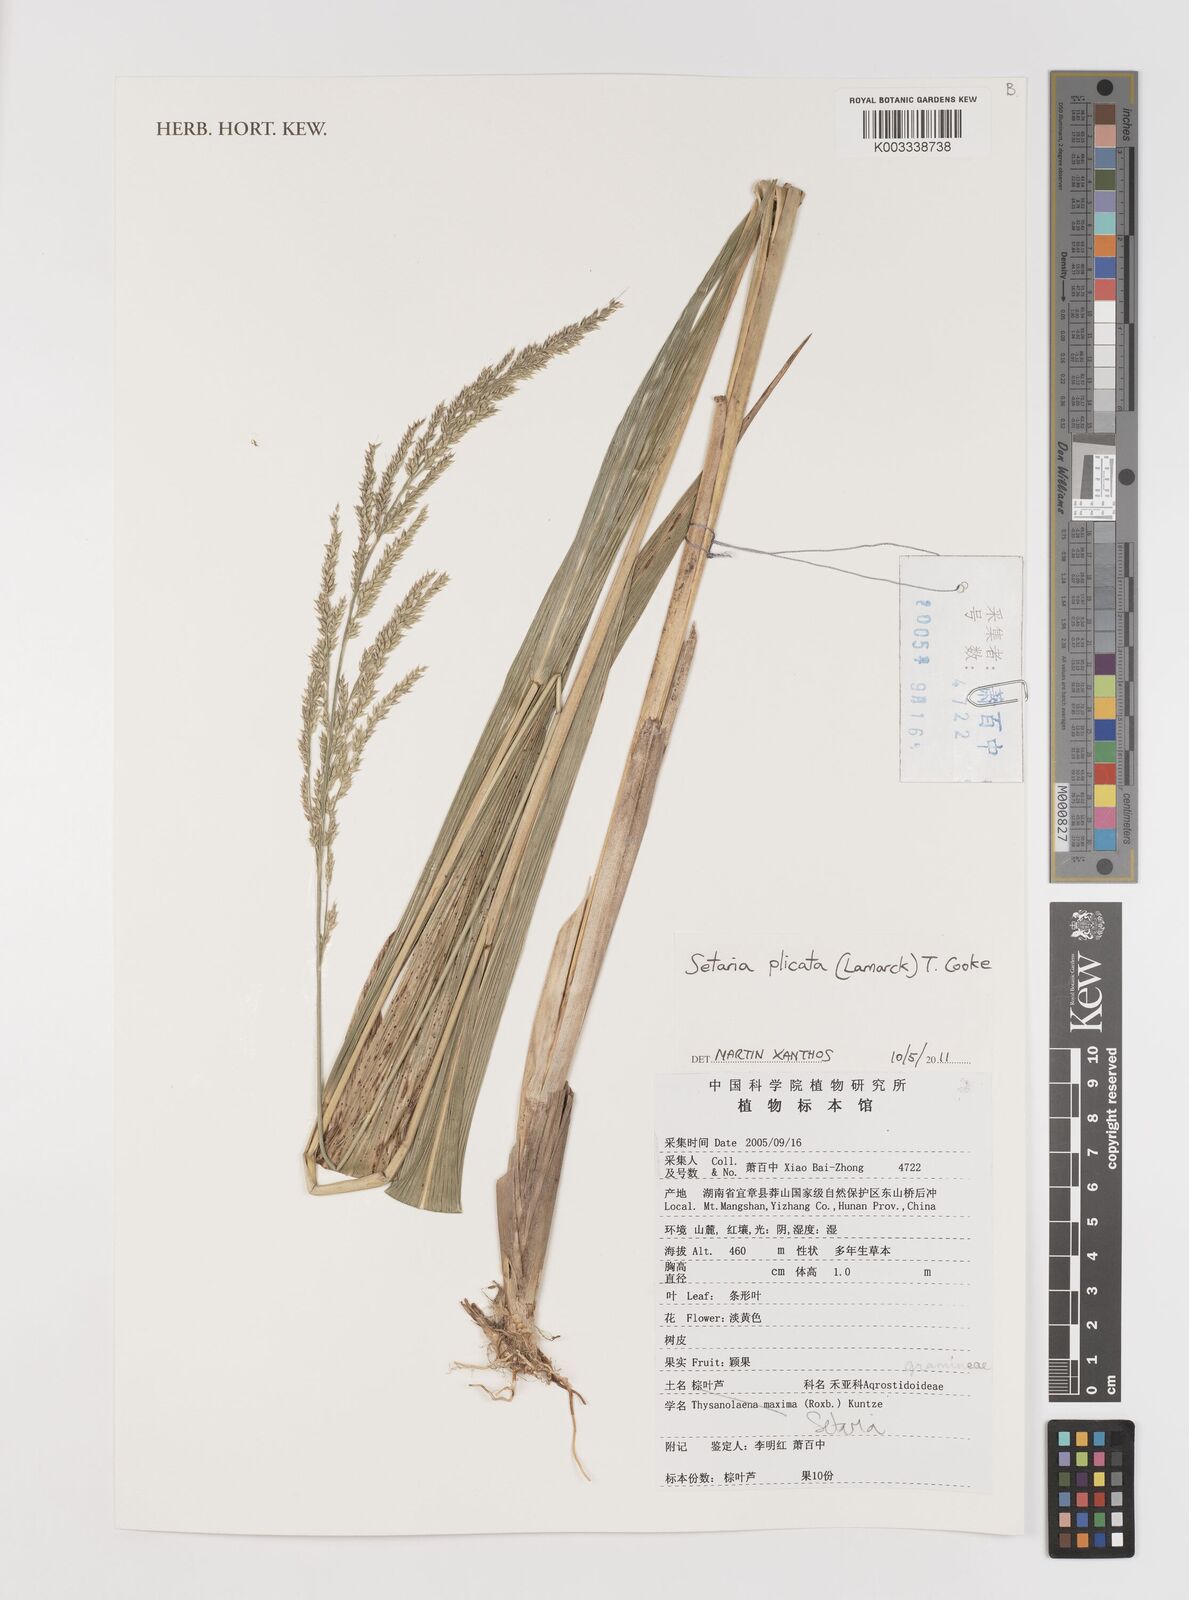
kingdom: Plantae
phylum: Tracheophyta
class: Liliopsida
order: Poales
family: Poaceae
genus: Setaria
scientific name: Setaria plicata
